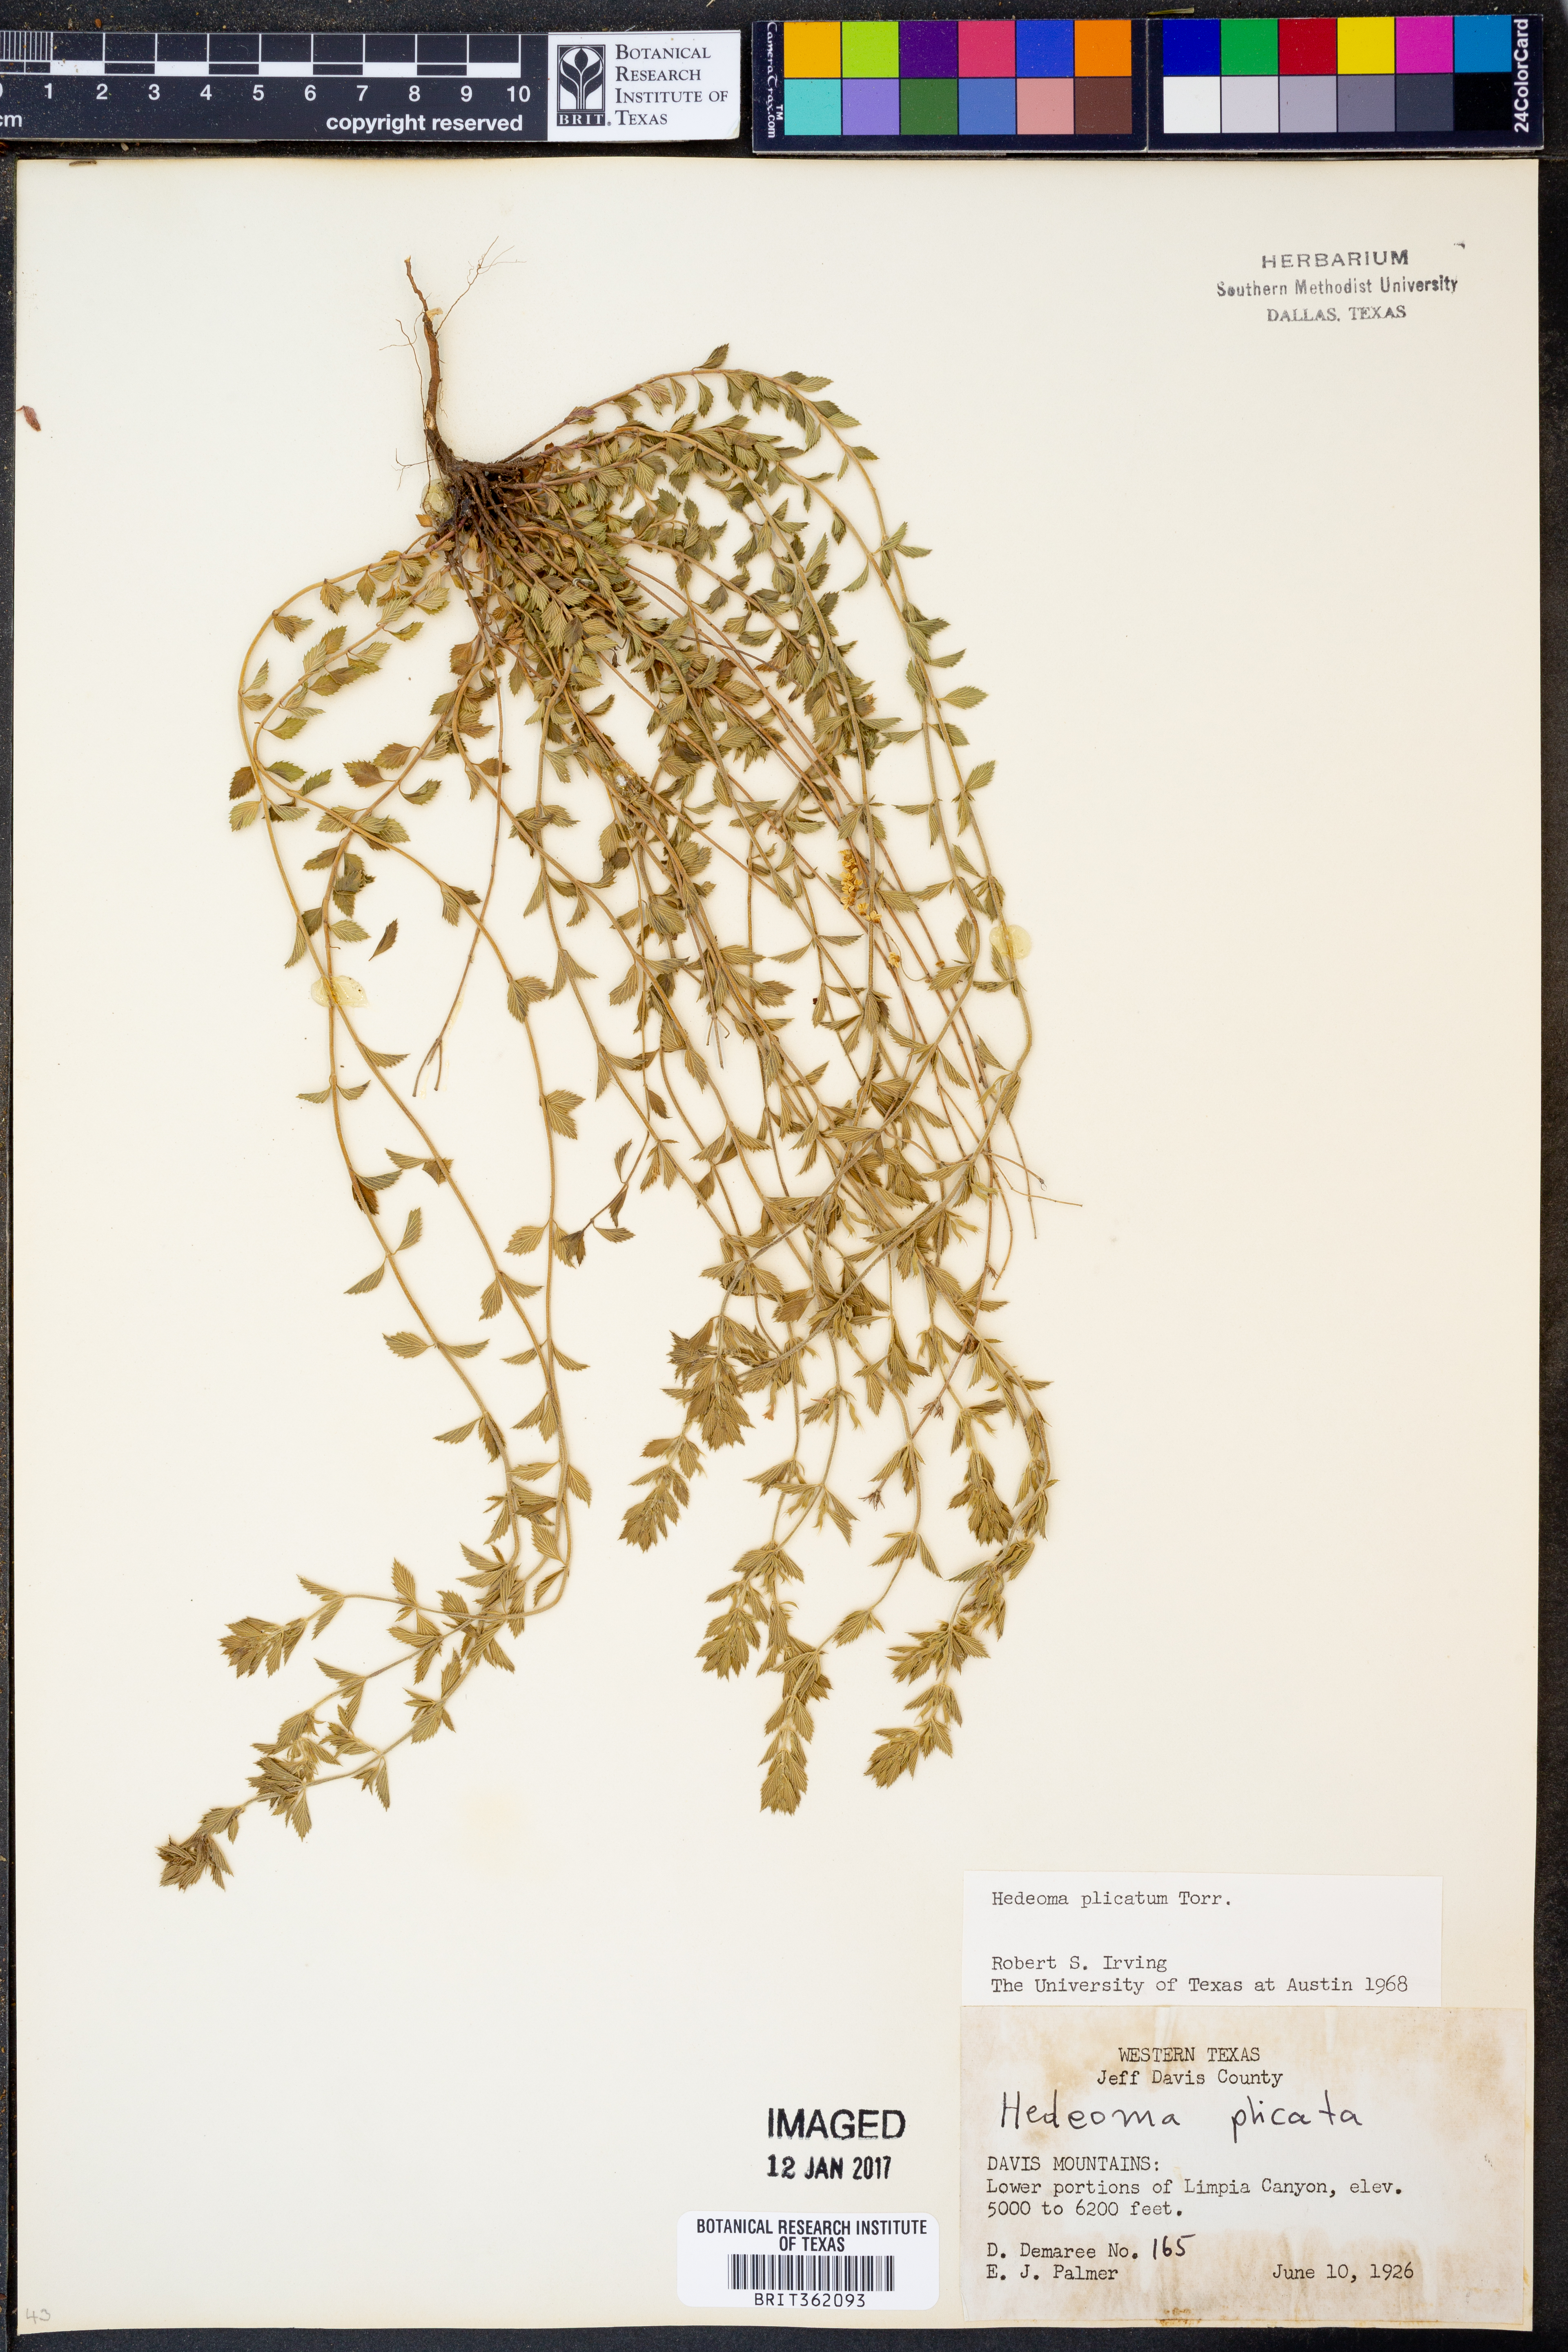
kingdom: Plantae
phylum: Tracheophyta
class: Magnoliopsida
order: Lamiales
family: Lamiaceae
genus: Hedeoma
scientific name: Hedeoma plicata
